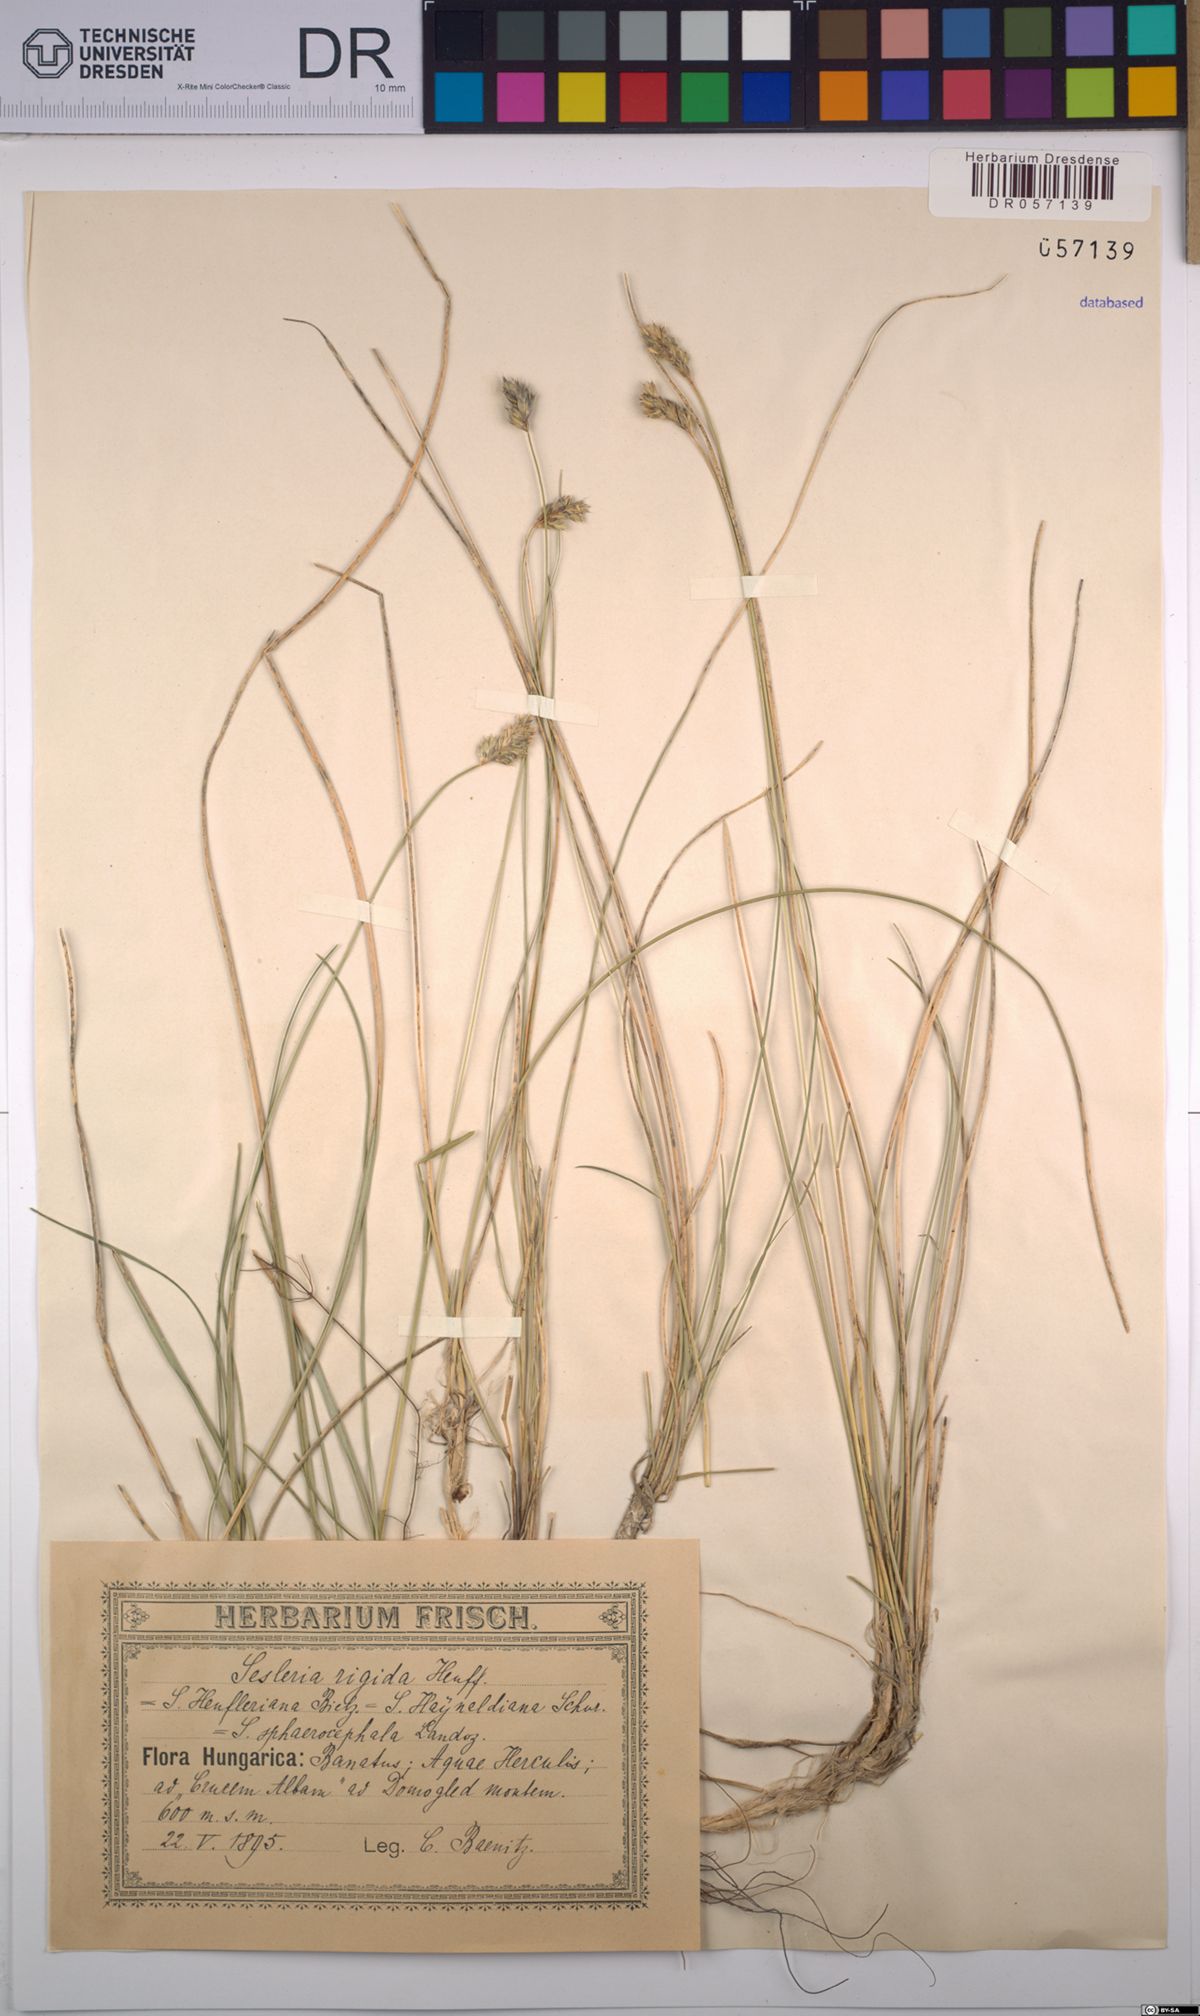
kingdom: Plantae
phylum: Tracheophyta
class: Liliopsida
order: Poales
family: Poaceae
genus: Sesleria
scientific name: Sesleria rigida
